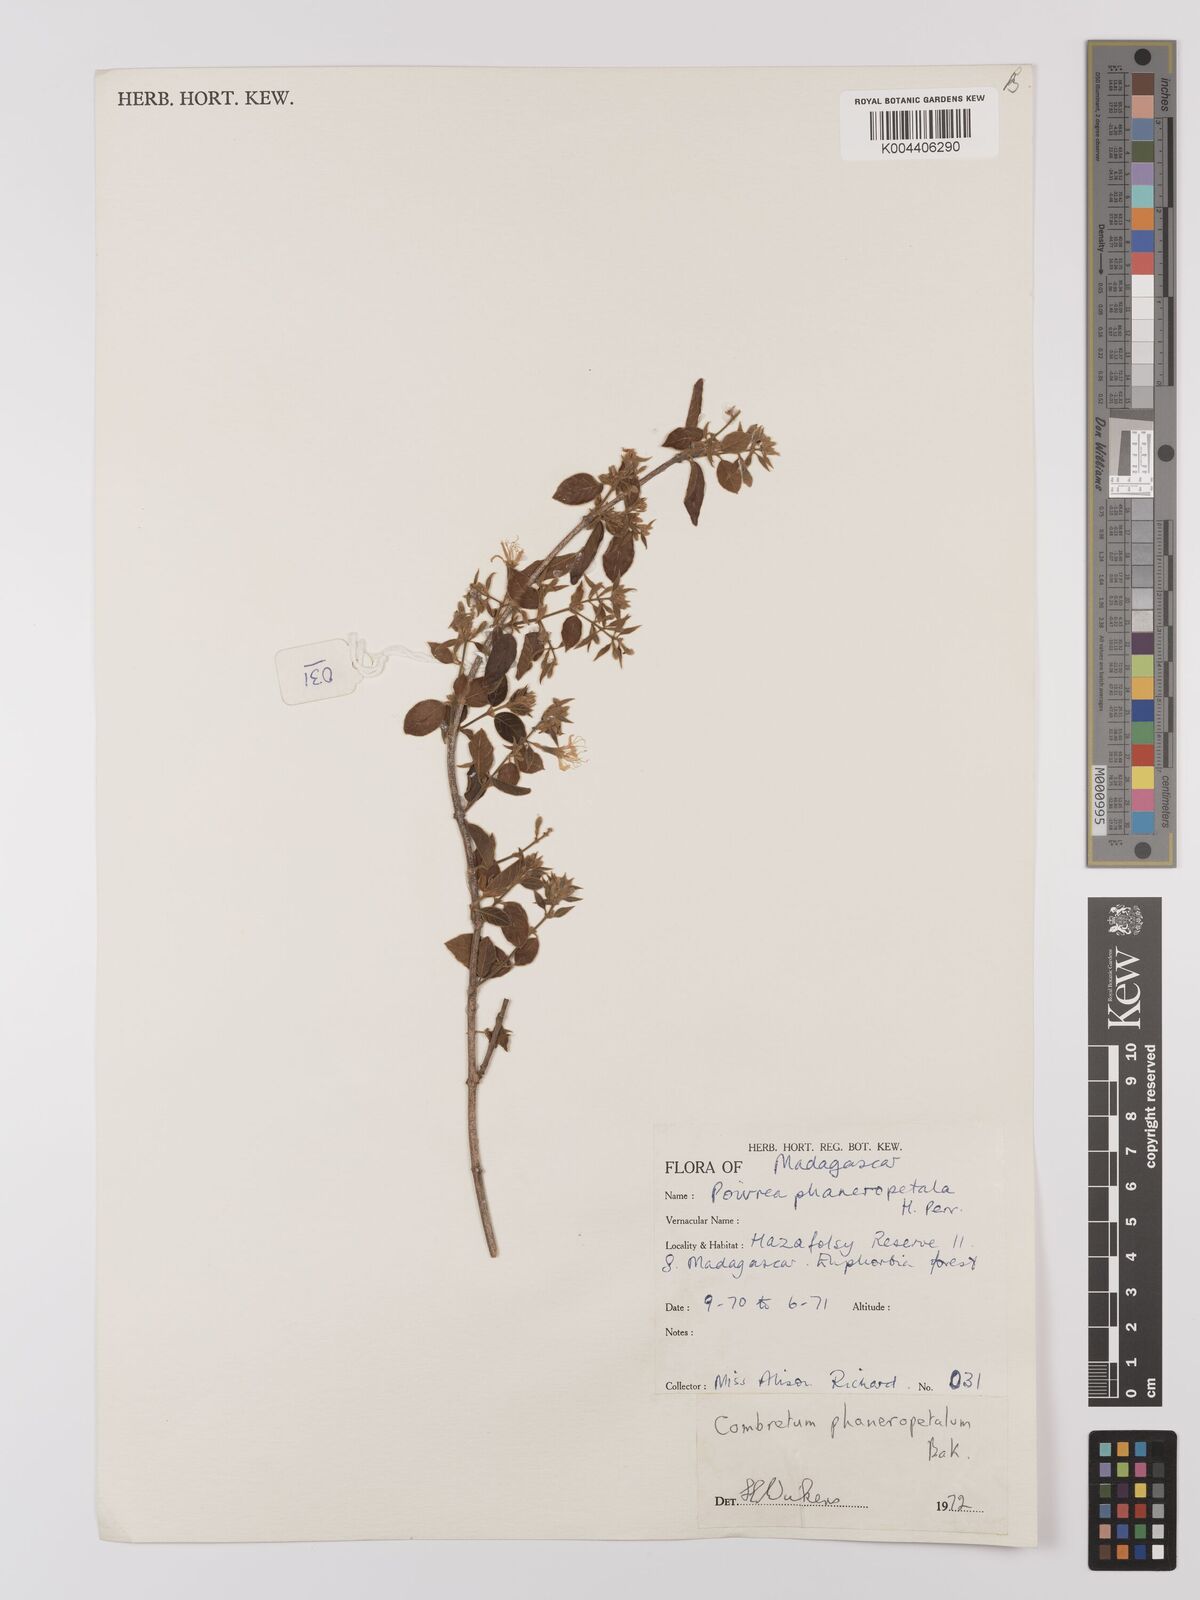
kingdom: Plantae
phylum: Tracheophyta
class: Magnoliopsida
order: Myrtales
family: Combretaceae
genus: Combretum
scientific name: Combretum albiflorum
